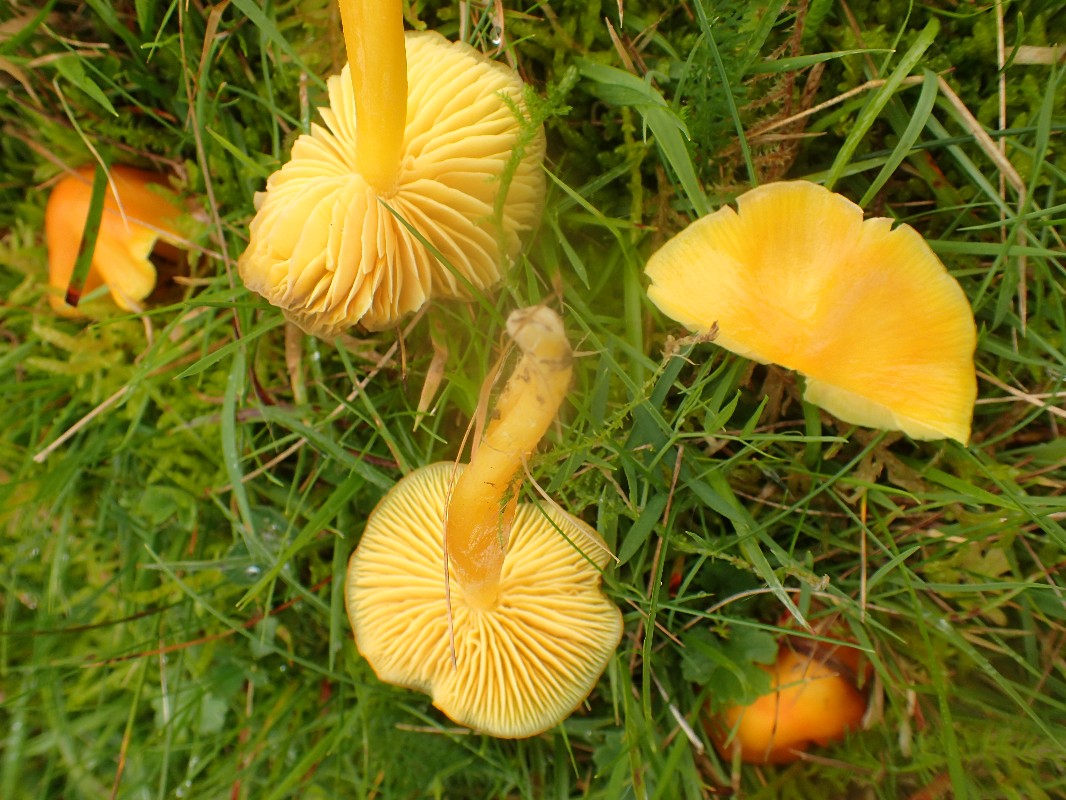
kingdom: Fungi
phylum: Basidiomycota
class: Agaricomycetes
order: Agaricales
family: Hygrophoraceae
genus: Hygrocybe
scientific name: Hygrocybe chlorophana
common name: gul vokshat
